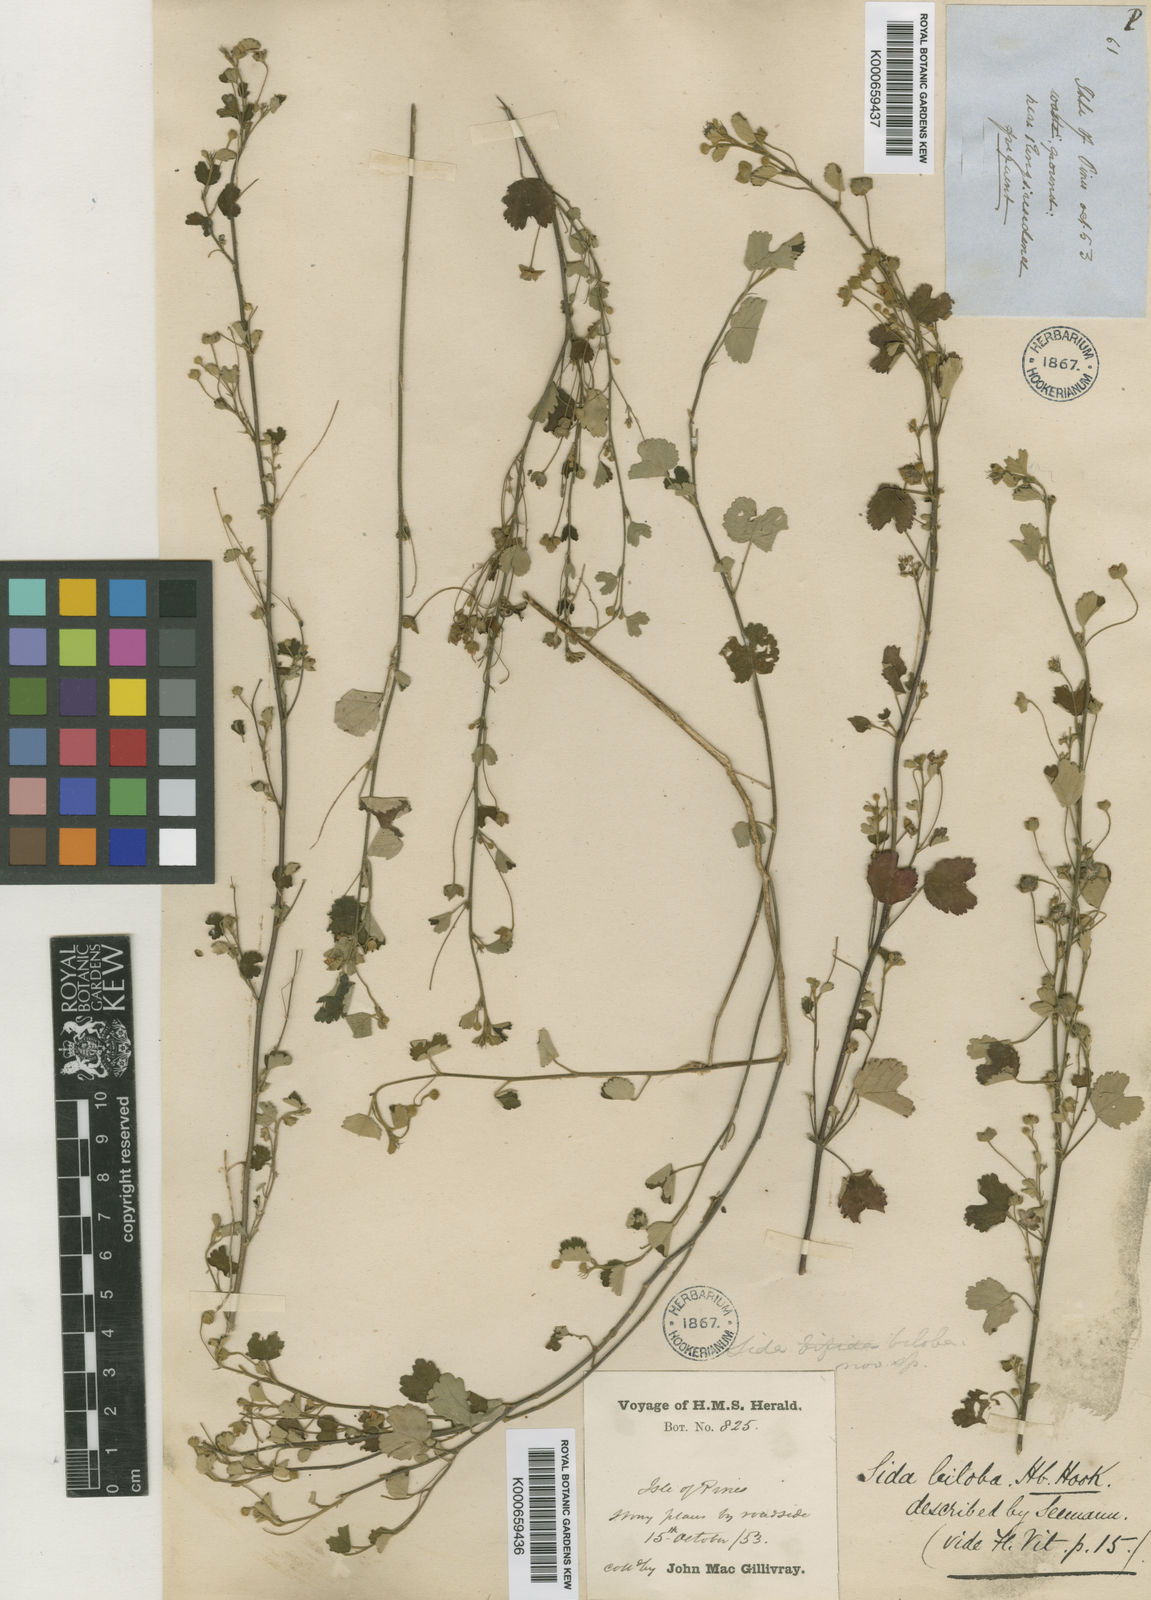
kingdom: Plantae
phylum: Tracheophyta
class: Magnoliopsida
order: Malvales
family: Malvaceae
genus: Sida
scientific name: Sida
